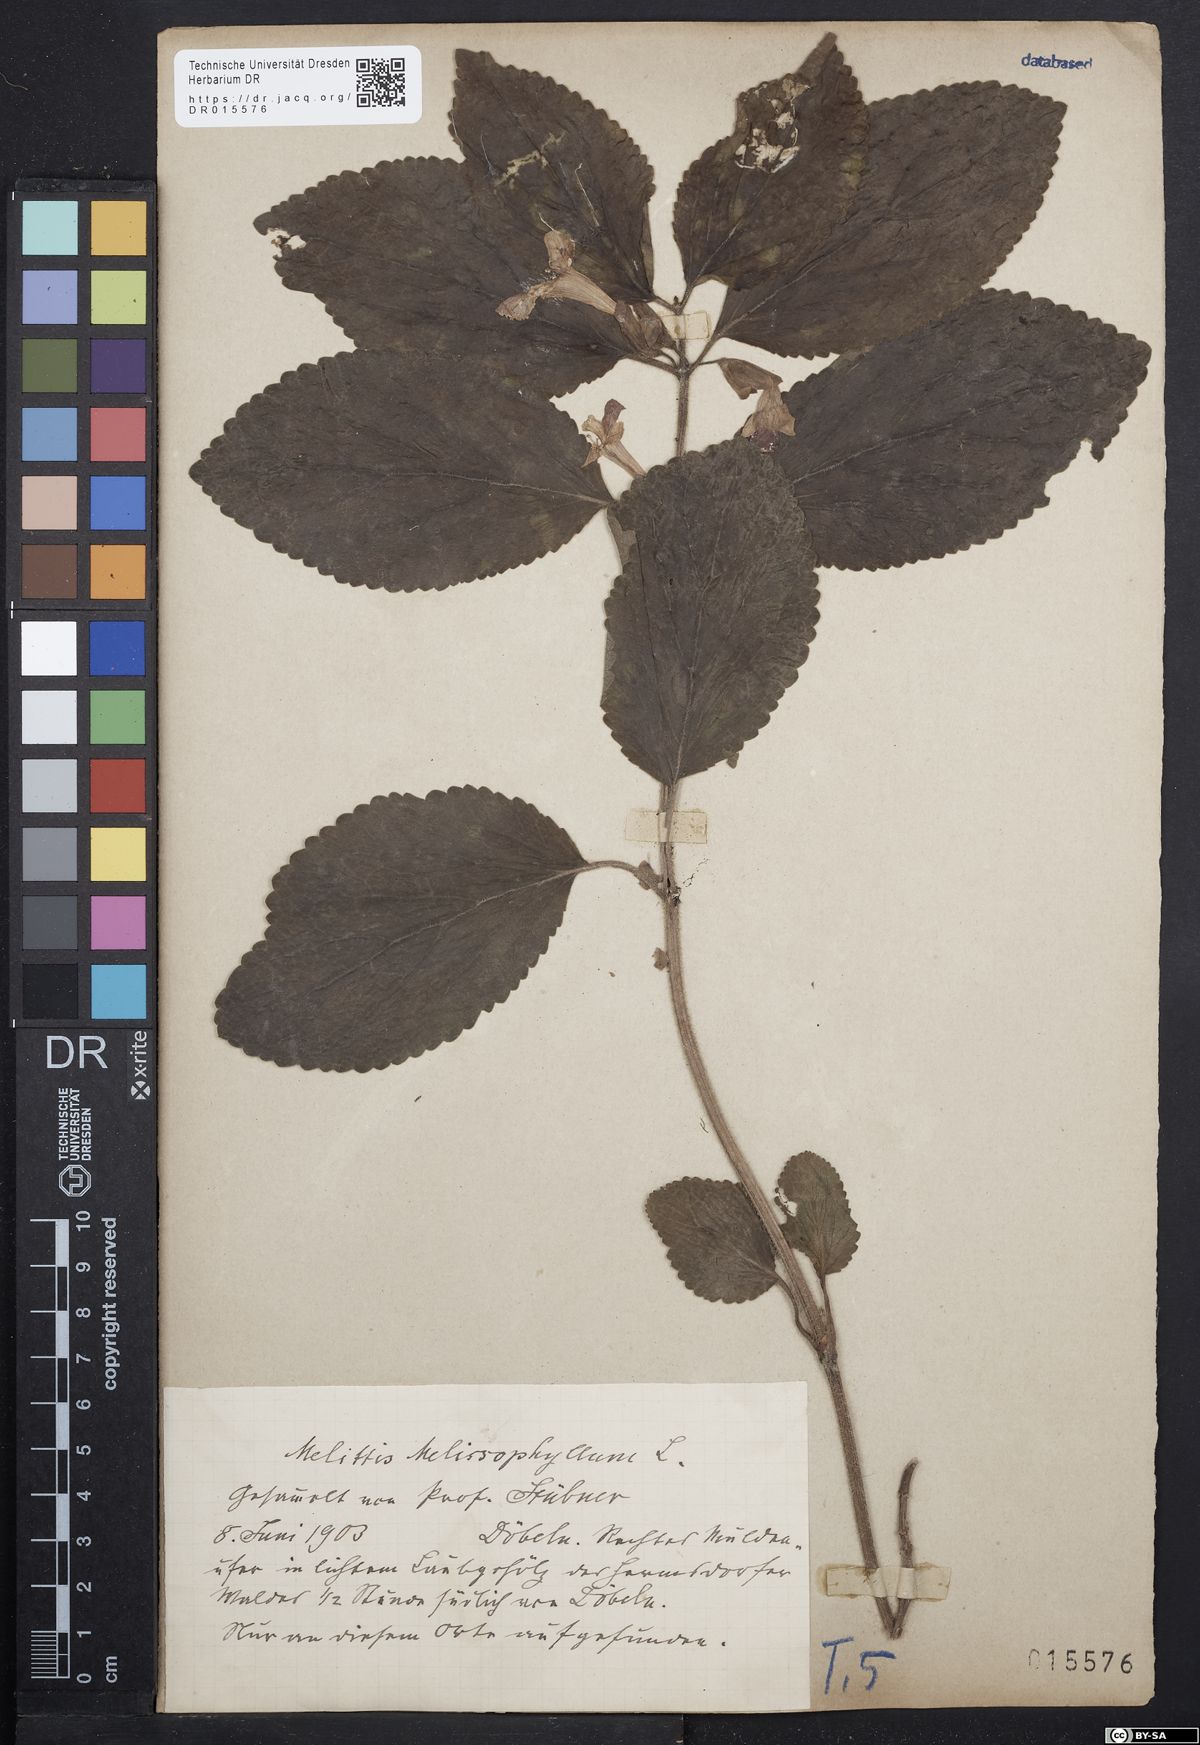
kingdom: Plantae
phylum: Tracheophyta
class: Magnoliopsida
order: Lamiales
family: Lamiaceae
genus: Melittis
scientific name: Melittis melissophyllum
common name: Bastard balm
